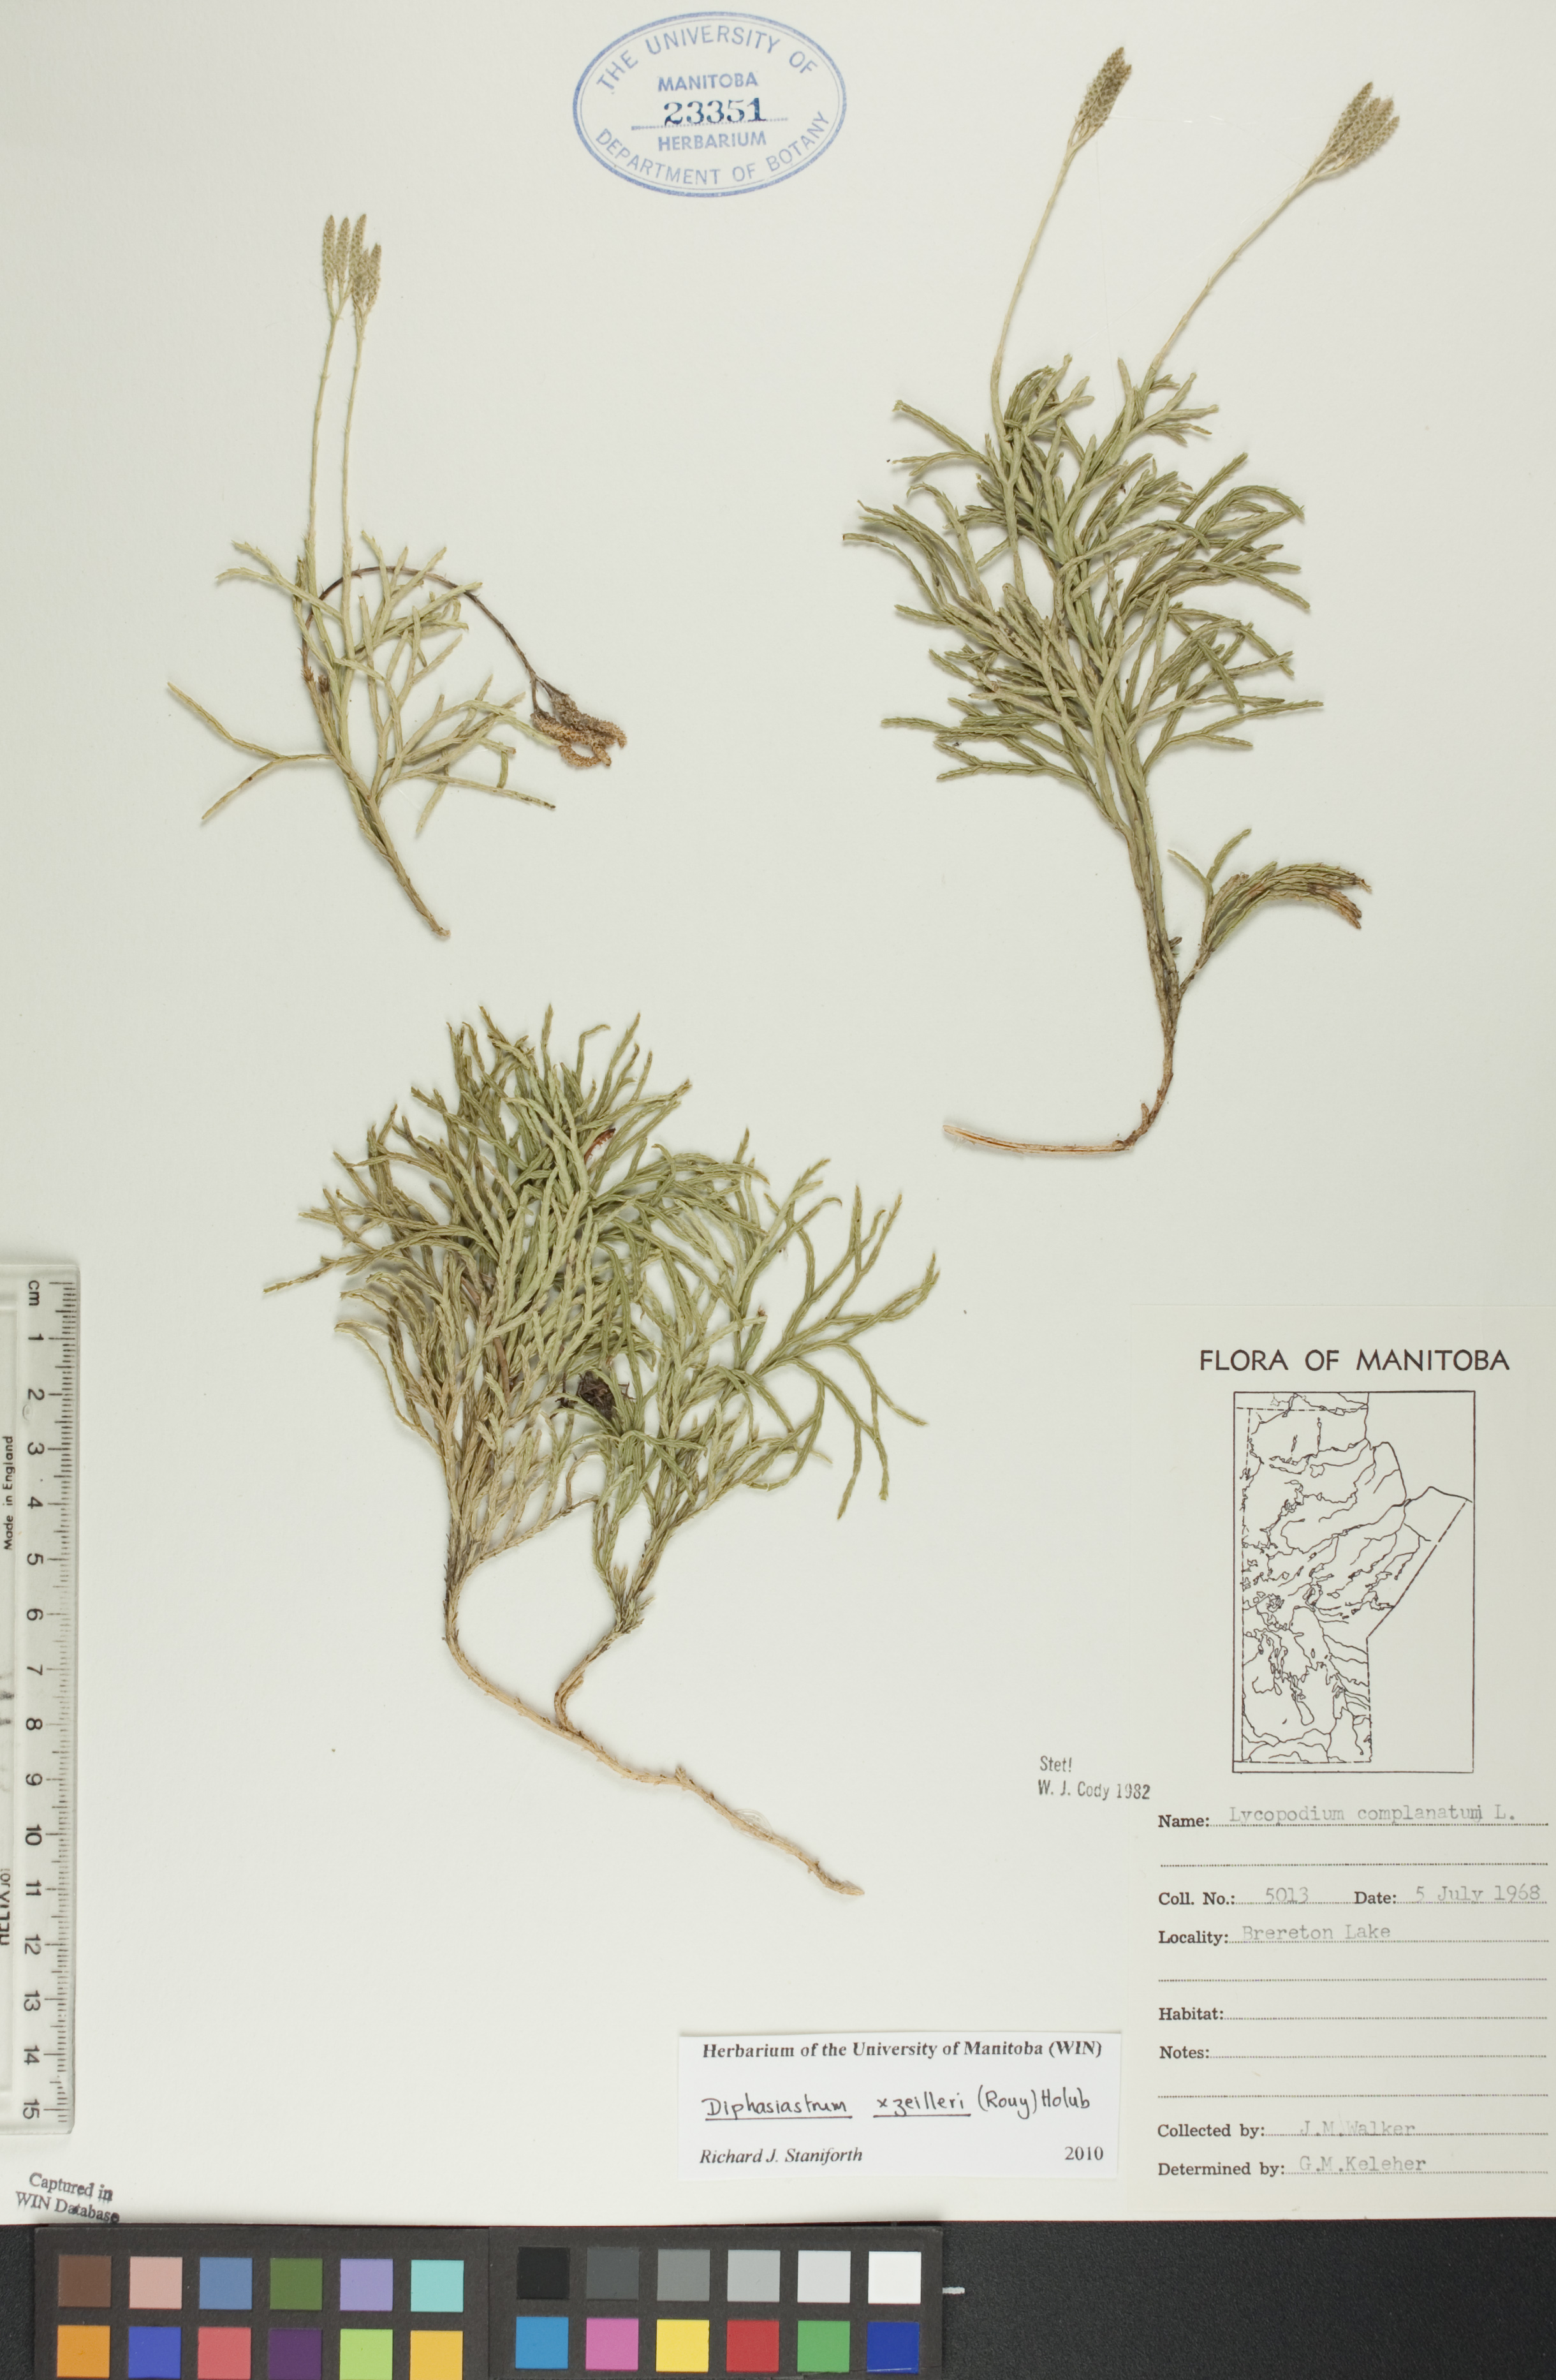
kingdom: Plantae
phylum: Tracheophyta
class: Lycopodiopsida
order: Lycopodiales
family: Lycopodiaceae
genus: Diphasiastrum
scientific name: Diphasiastrum zeilleri
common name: Zeiller's clubmoss
